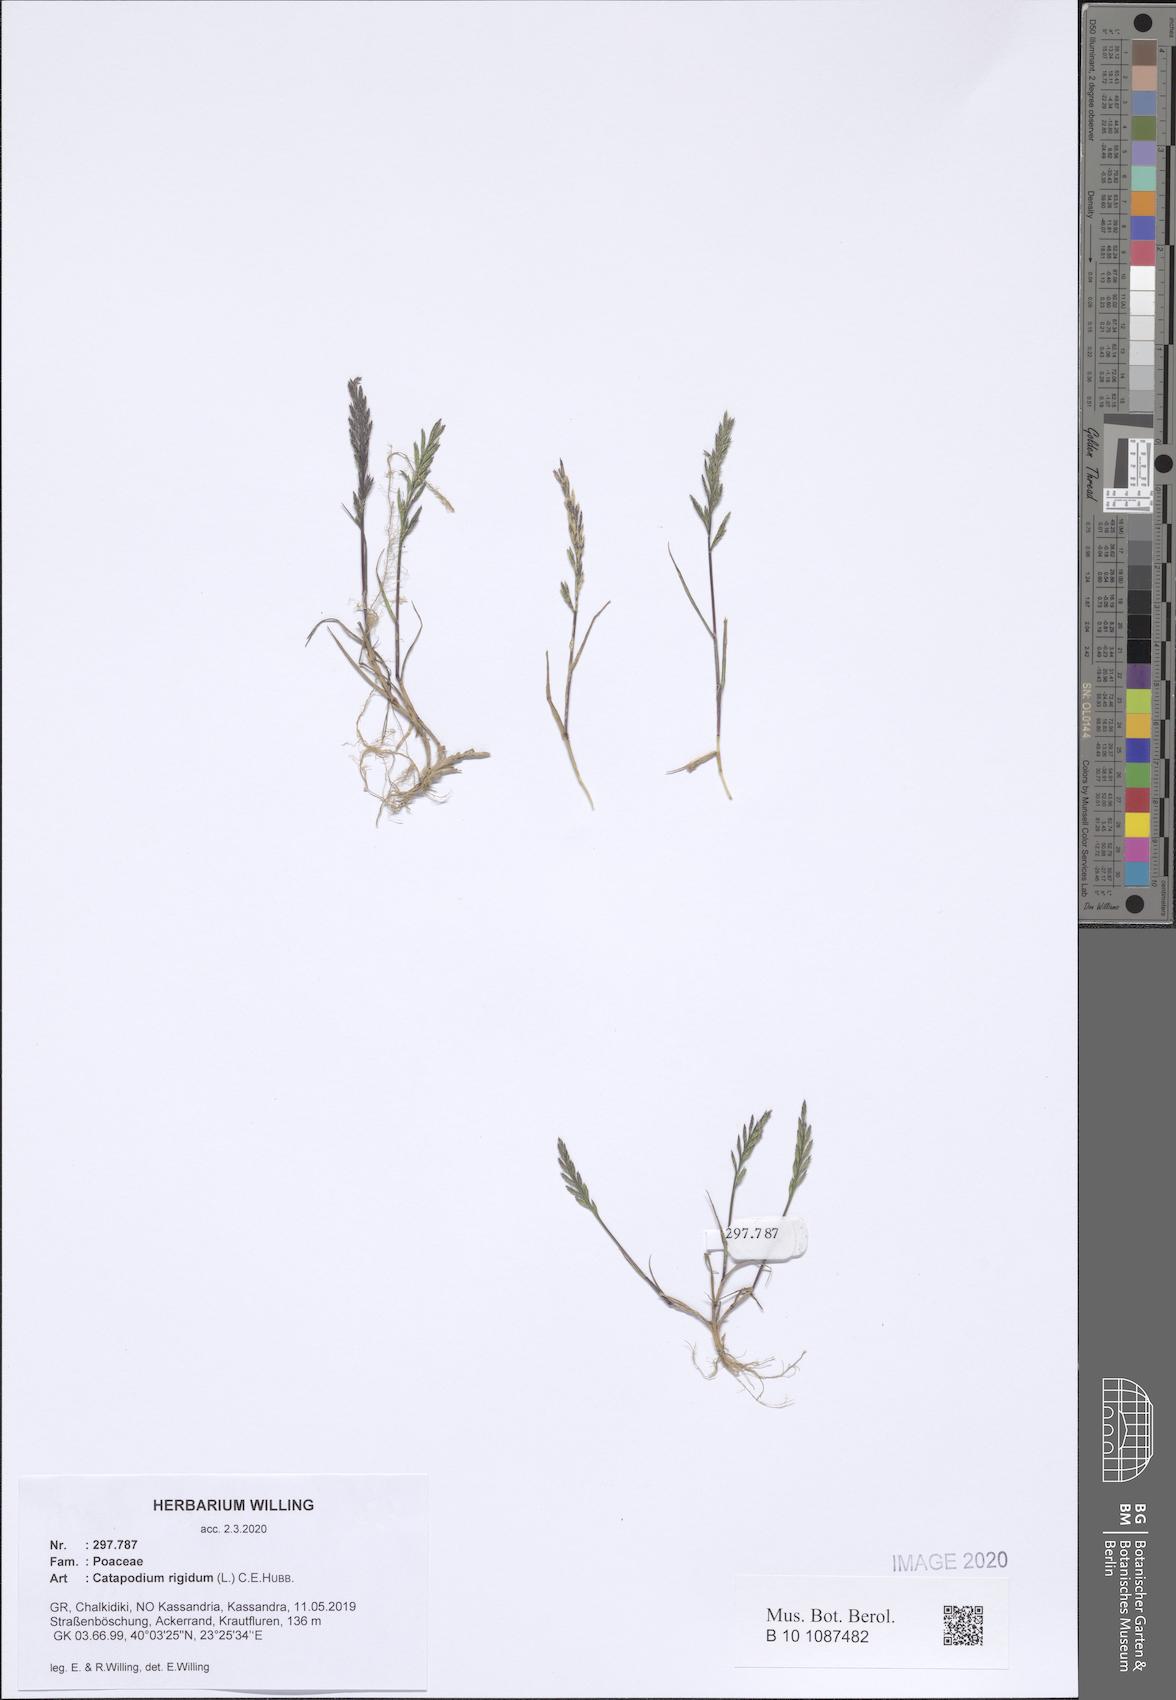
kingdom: Plantae
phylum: Tracheophyta
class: Liliopsida
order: Poales
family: Poaceae
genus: Catapodium
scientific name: Catapodium rigidum
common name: Fern-grass
